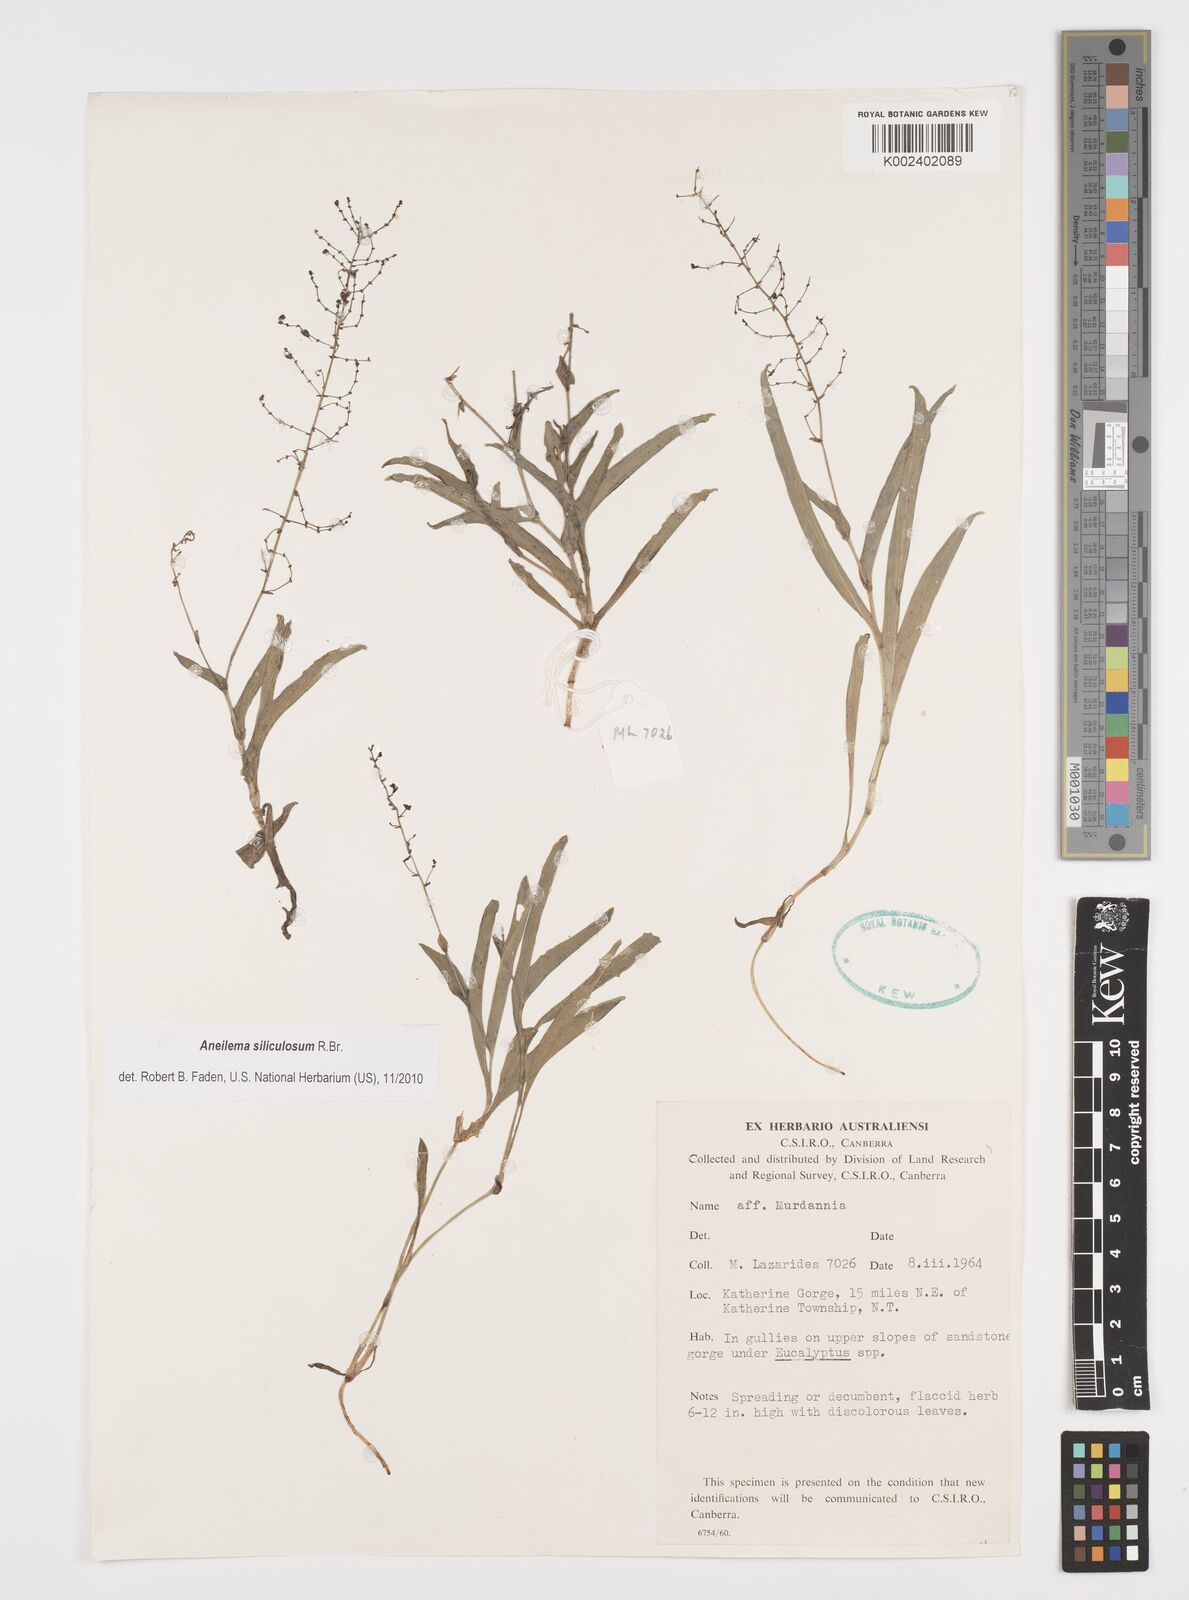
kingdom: Plantae
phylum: Tracheophyta
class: Liliopsida
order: Commelinales
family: Commelinaceae
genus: Aneilema
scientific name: Aneilema siliculosum
